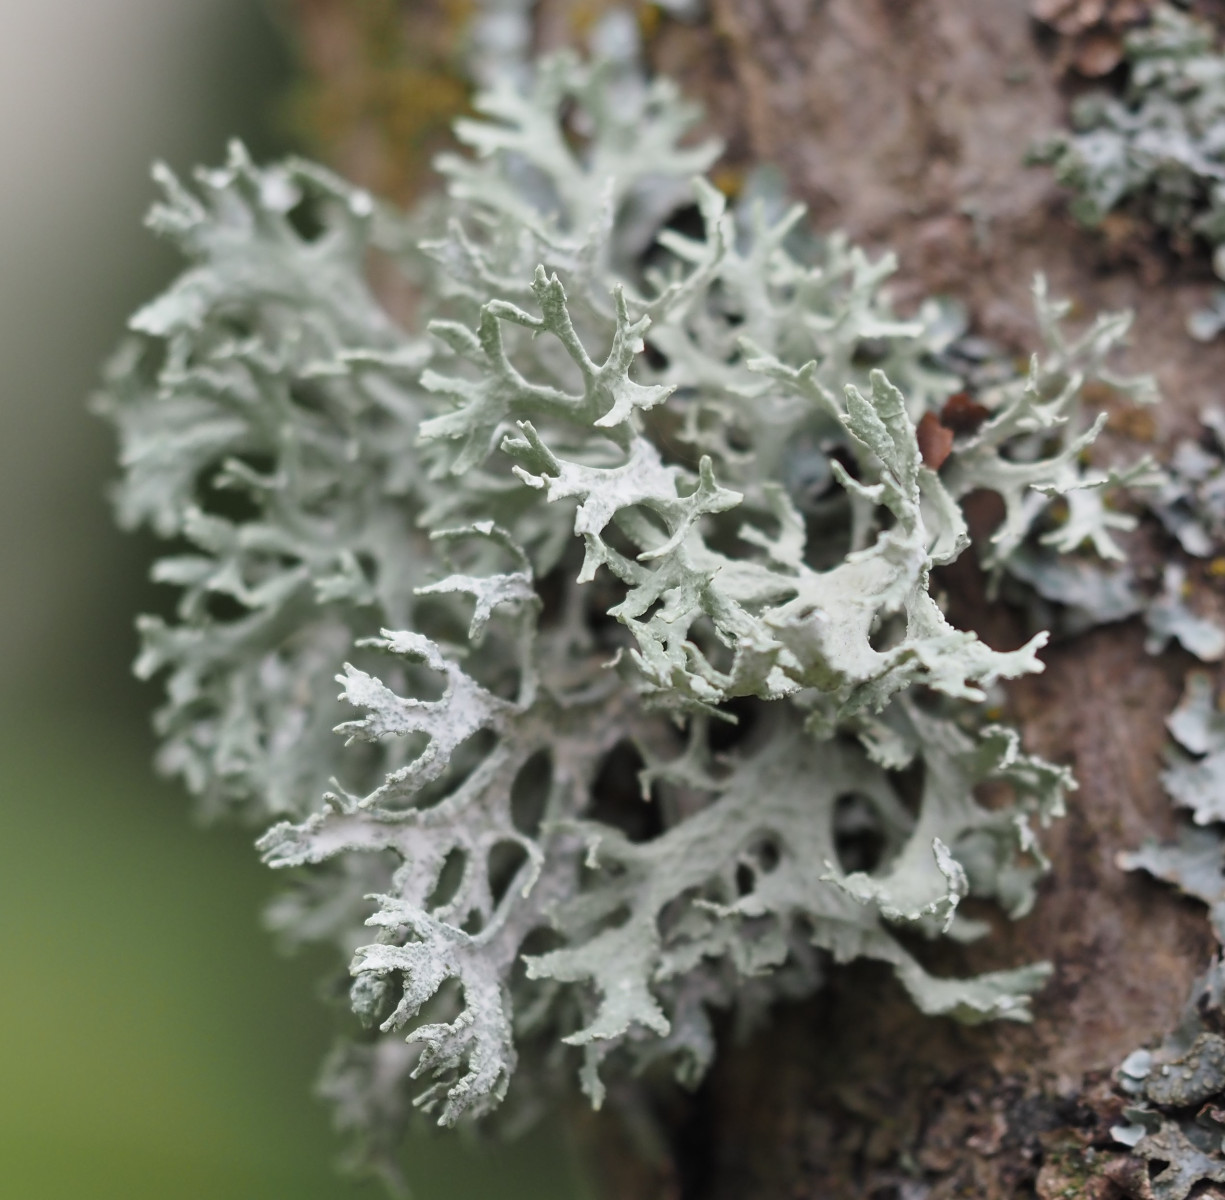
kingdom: Fungi
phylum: Ascomycota
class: Lecanoromycetes
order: Lecanorales
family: Parmeliaceae
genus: Evernia
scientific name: Evernia prunastri
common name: almindelig slåenlav
